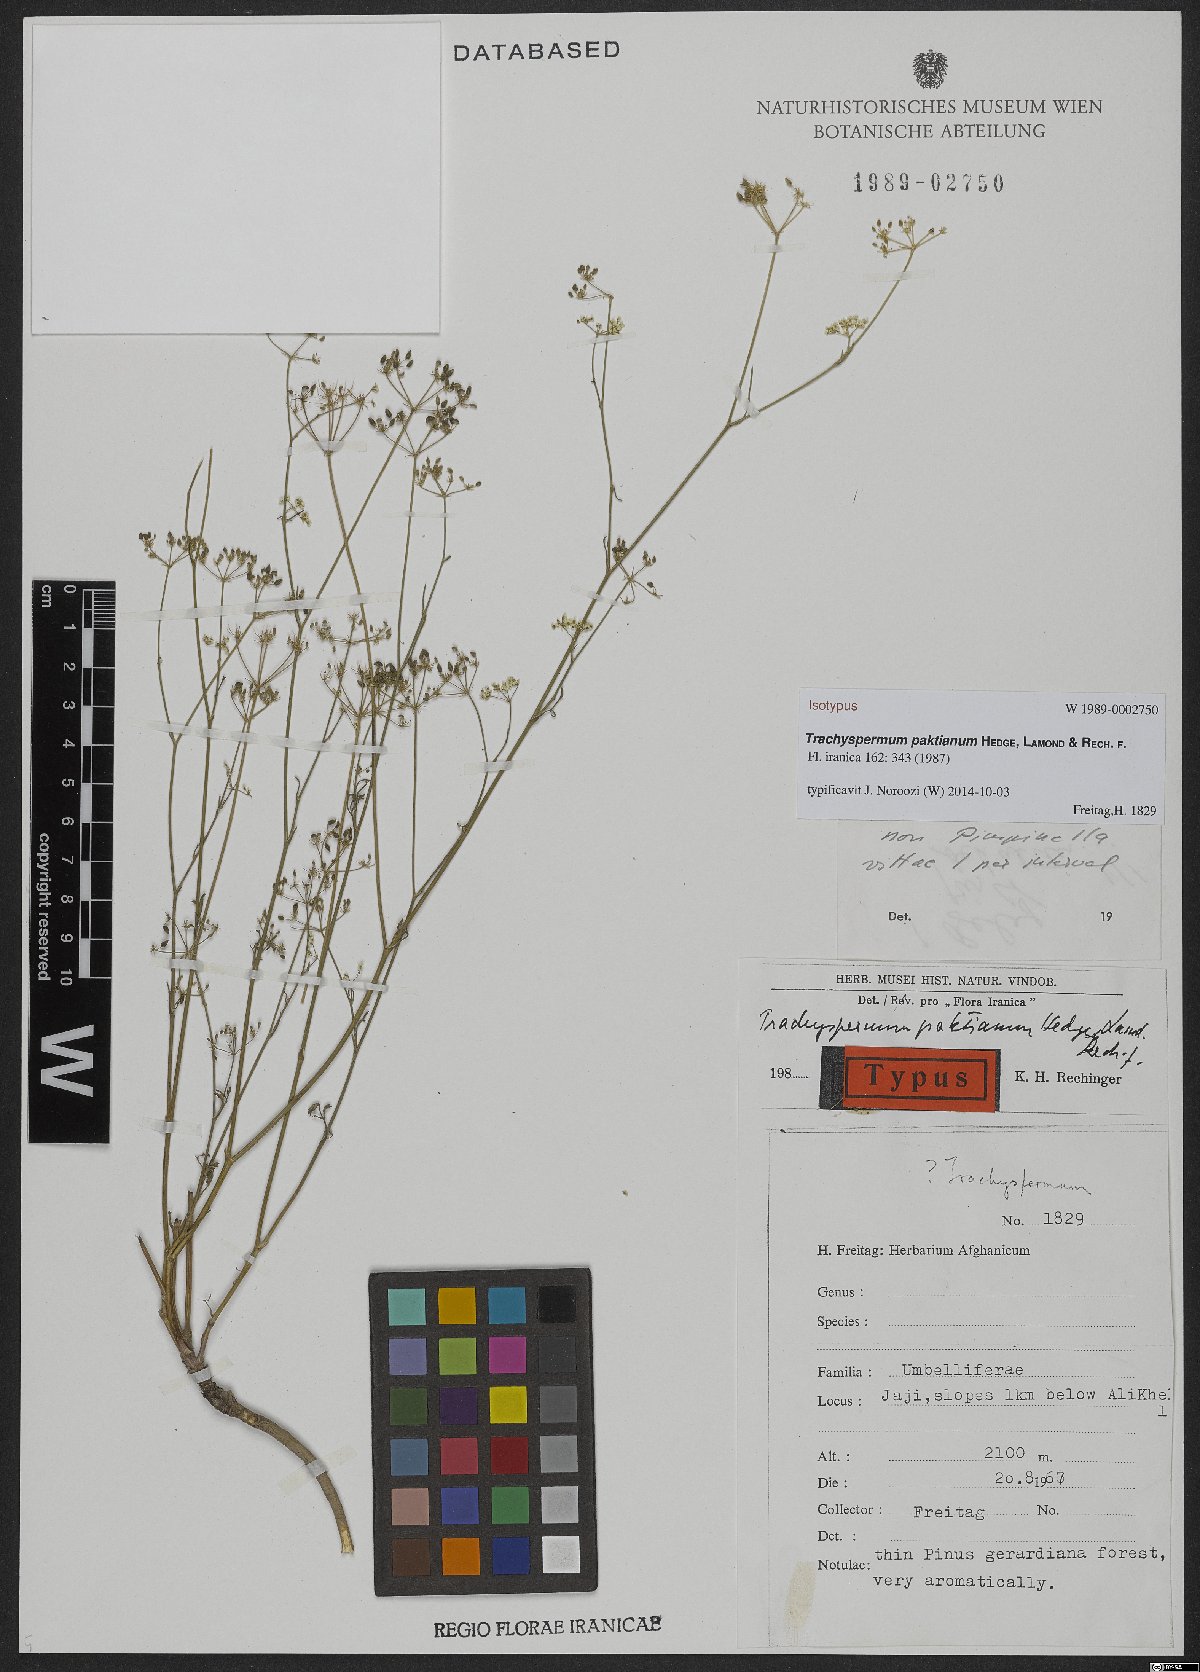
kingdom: Plantae
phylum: Tracheophyta
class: Magnoliopsida
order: Apiales
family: Apiaceae
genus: Psammogeton
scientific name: Psammogeton paktianum
